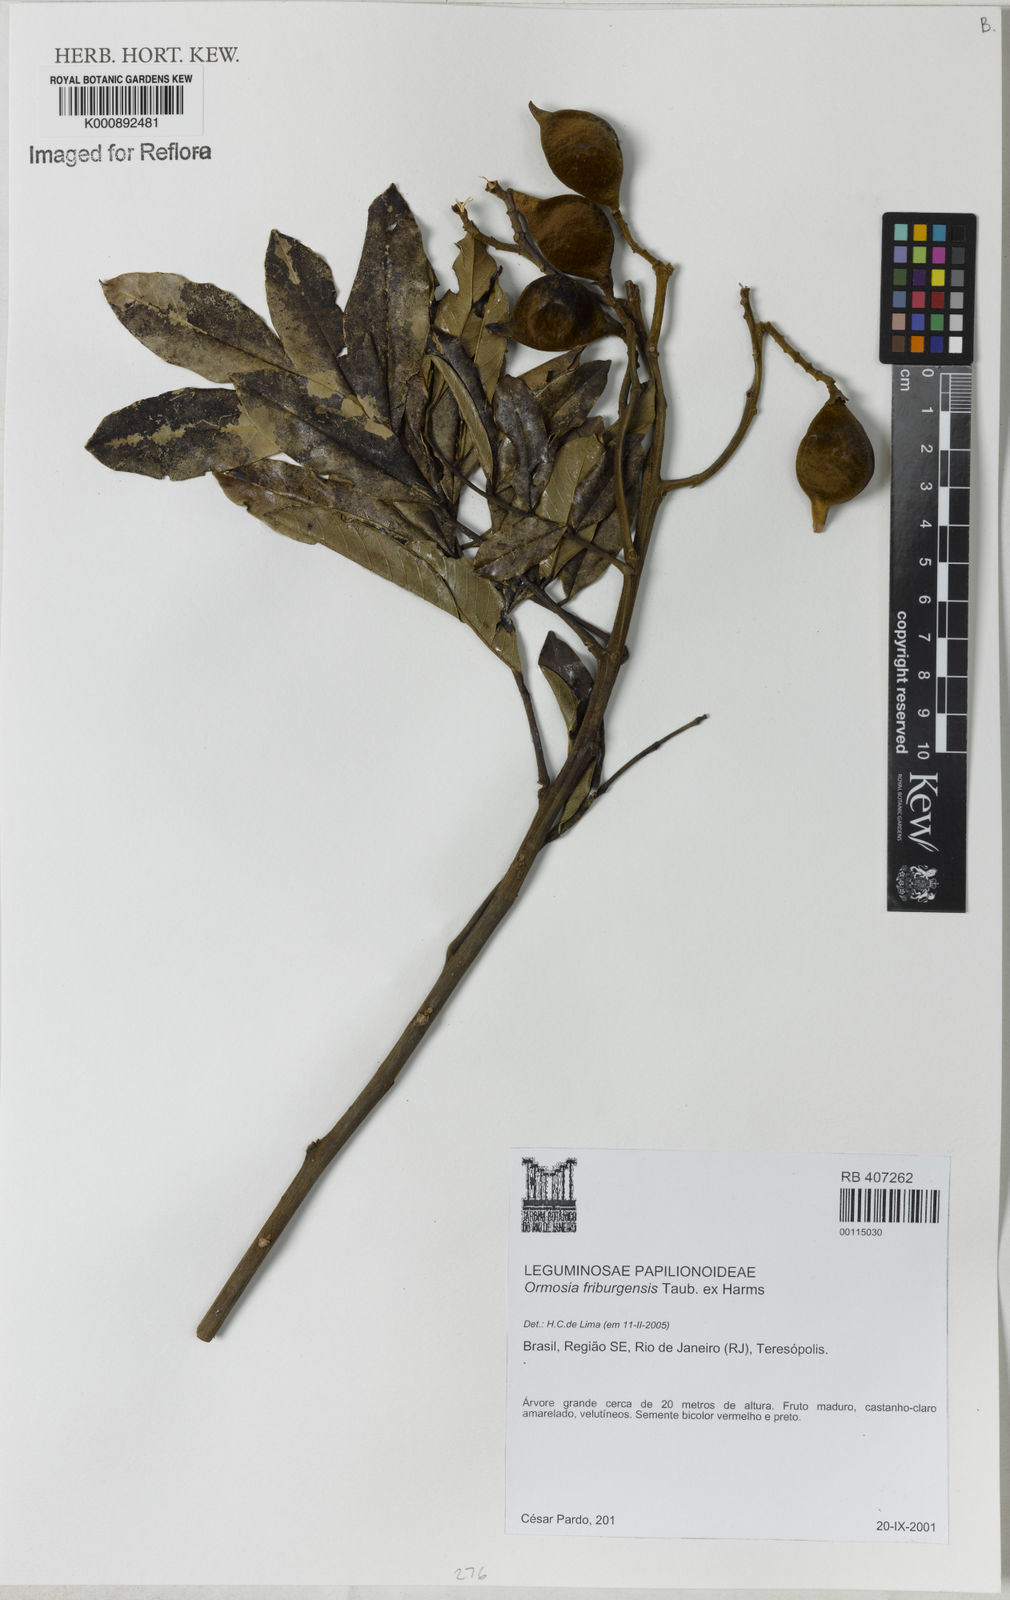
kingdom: Plantae
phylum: Tracheophyta
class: Magnoliopsida
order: Fabales
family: Fabaceae
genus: Ormosia
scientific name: Ormosia friburgensis
